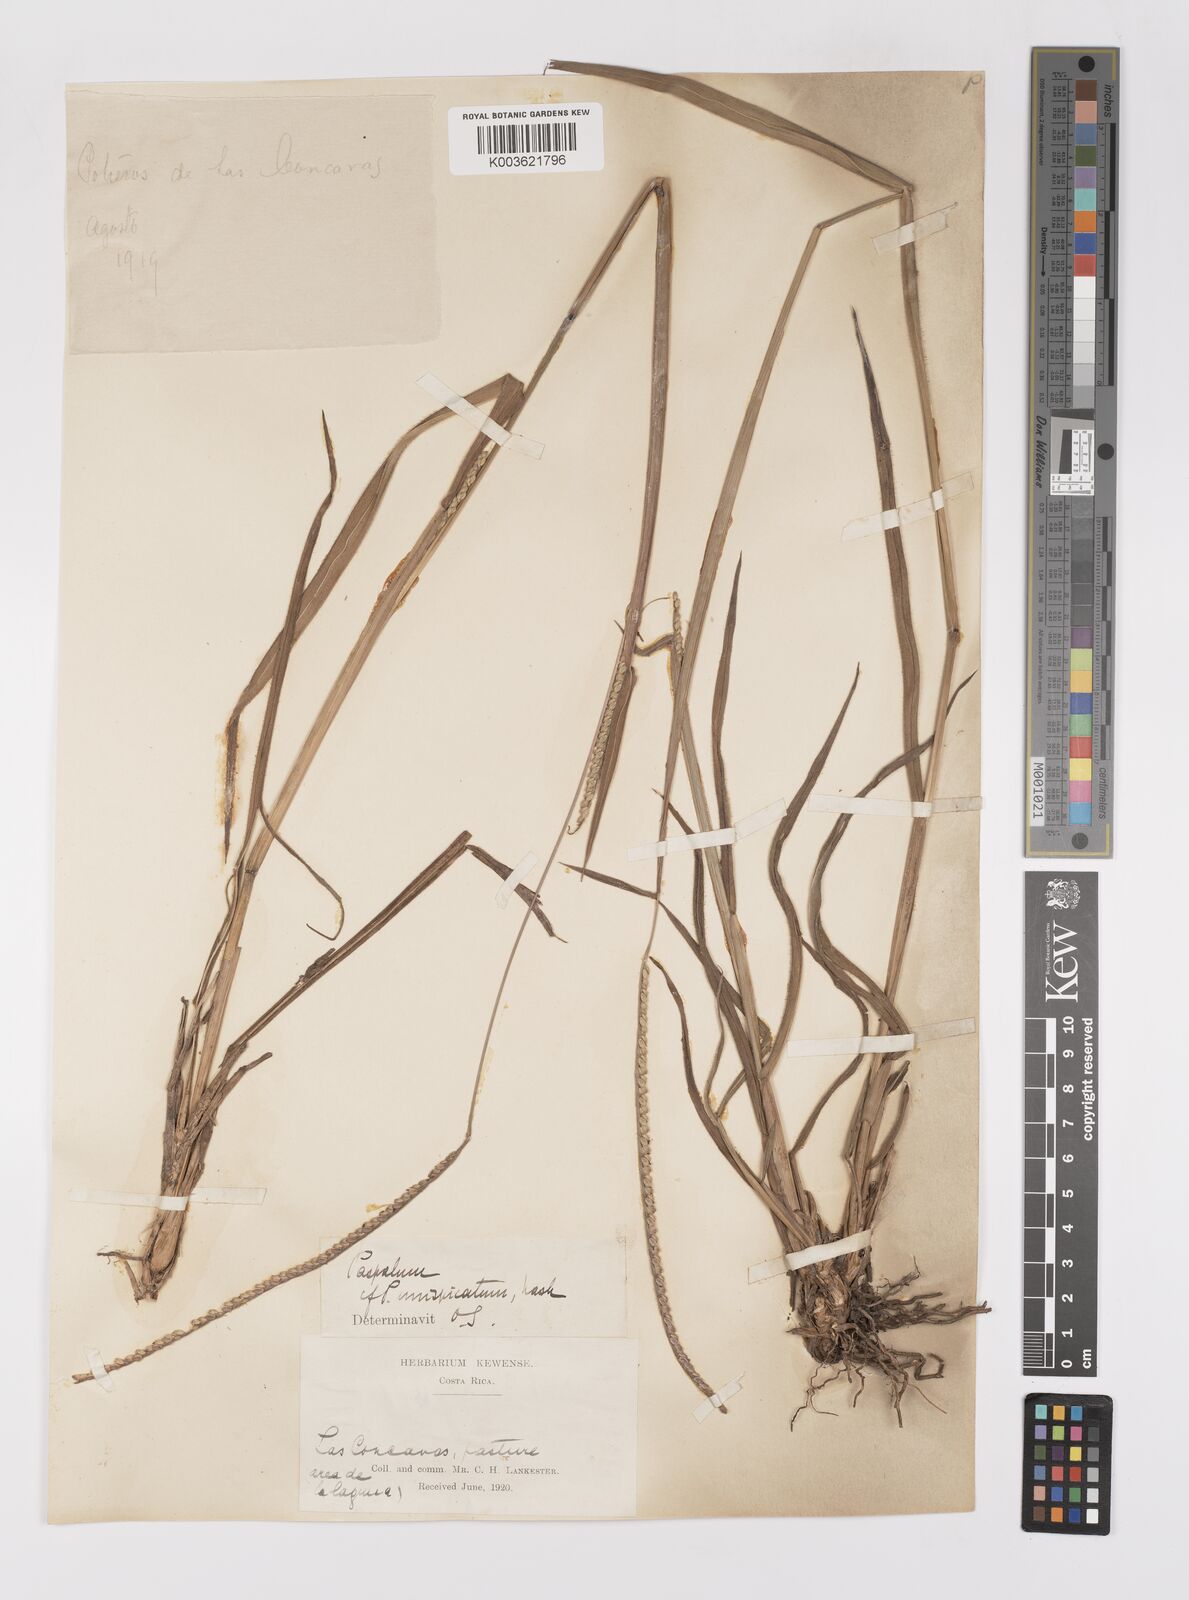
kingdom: Plantae
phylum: Tracheophyta
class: Liliopsida
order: Poales
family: Poaceae
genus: Paspalum
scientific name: Paspalum unispicatum
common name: Onespike paspalum
